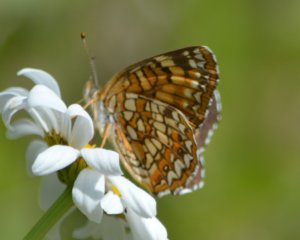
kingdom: Animalia
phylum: Arthropoda
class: Insecta
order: Lepidoptera
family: Nymphalidae
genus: Chlosyne
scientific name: Chlosyne harrisii
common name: Harris's Checkerspot
